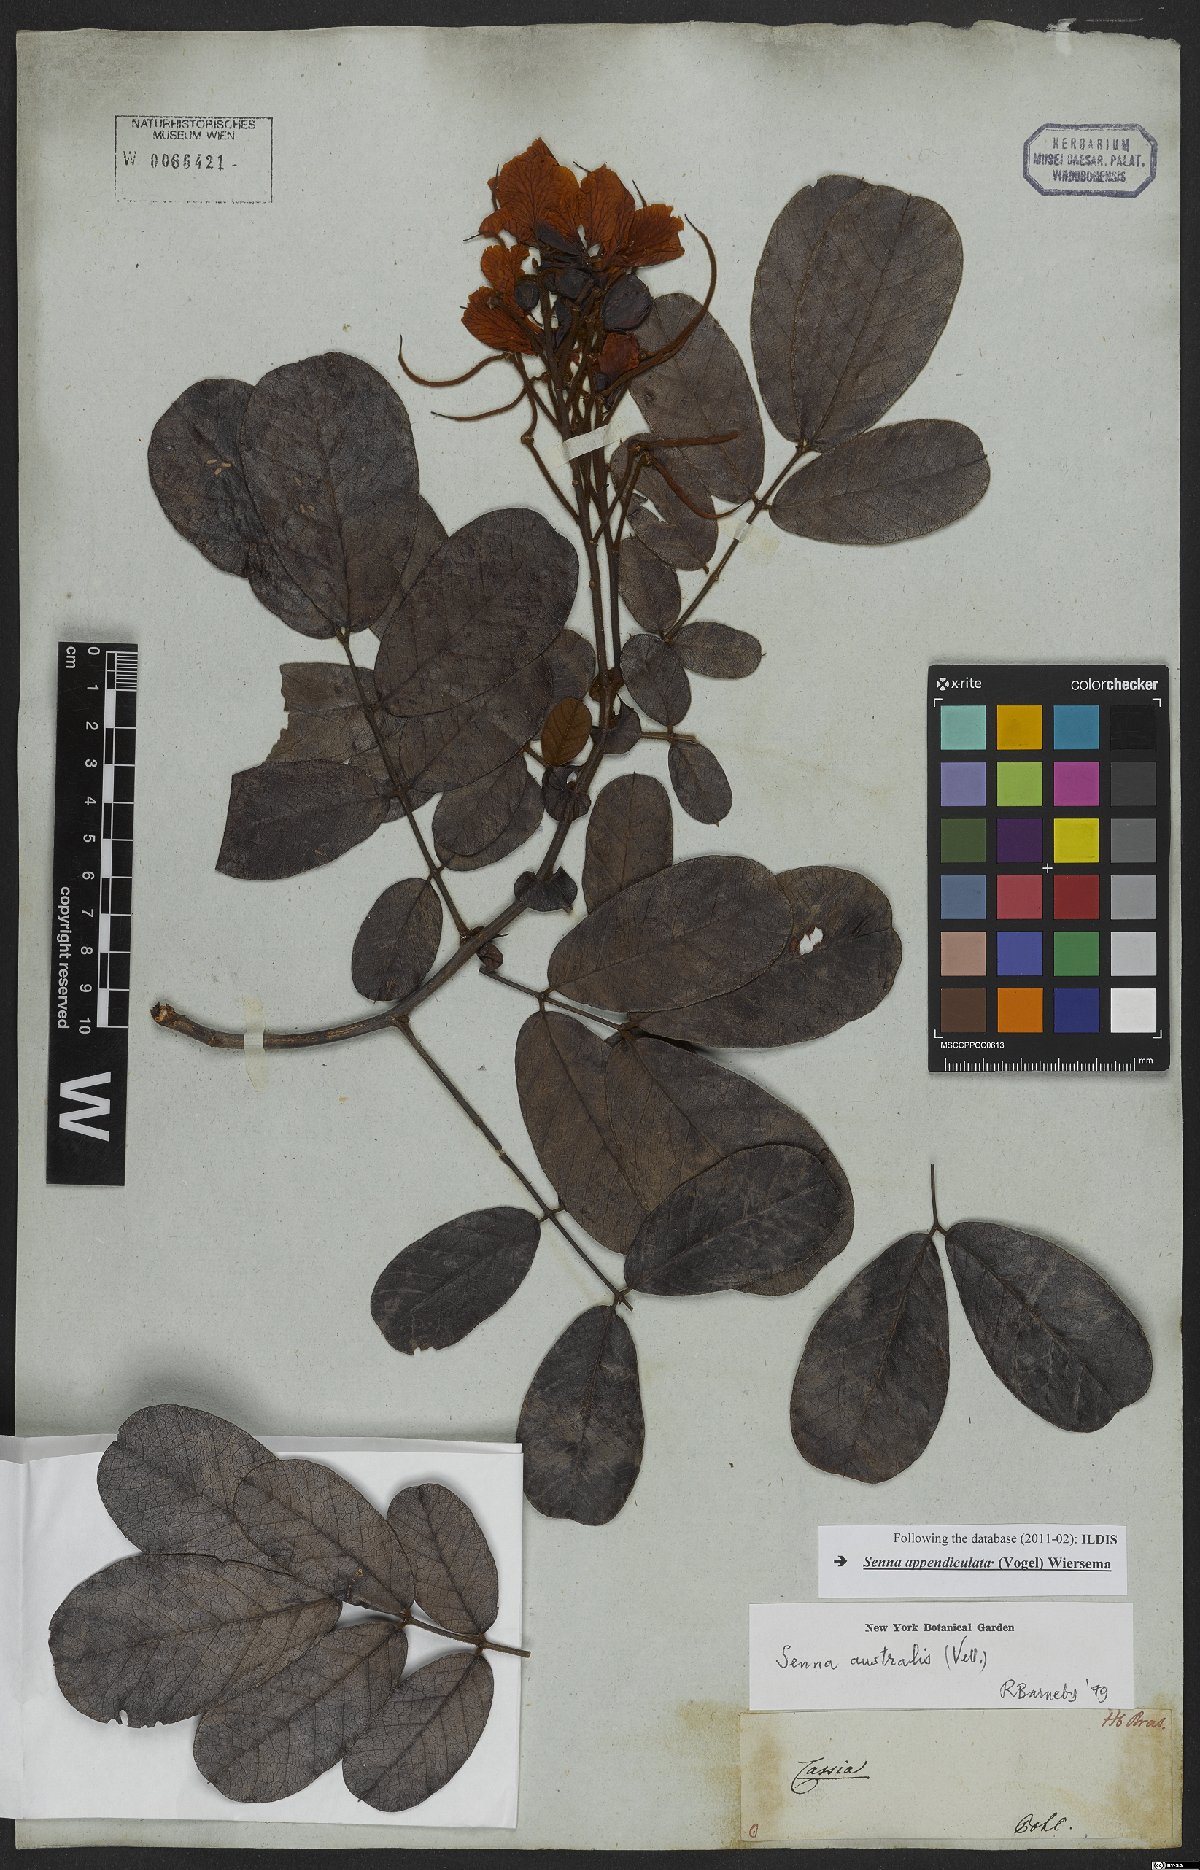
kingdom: Plantae
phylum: Tracheophyta
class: Magnoliopsida
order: Fabales
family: Fabaceae
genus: Senna
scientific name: Senna appendiculata
